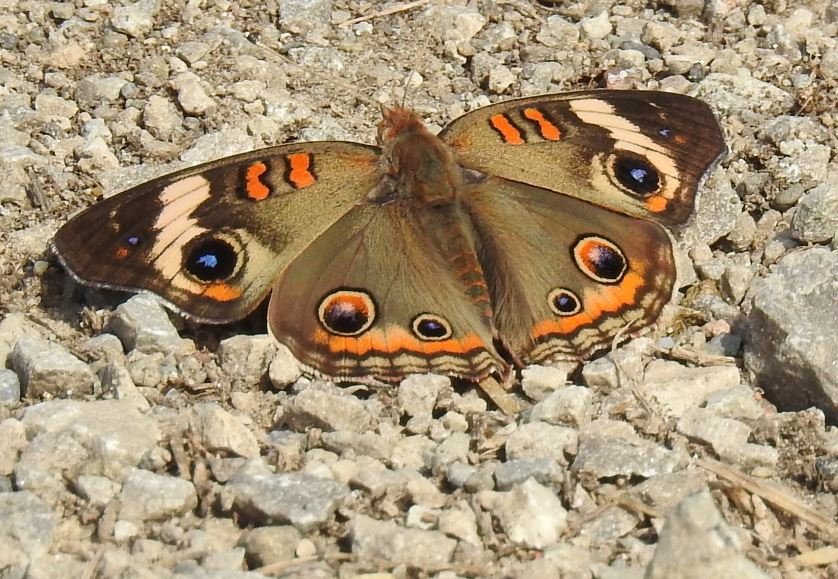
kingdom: Animalia
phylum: Arthropoda
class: Insecta
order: Lepidoptera
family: Nymphalidae
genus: Junonia
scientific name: Junonia coenia
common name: Common Buckeye
